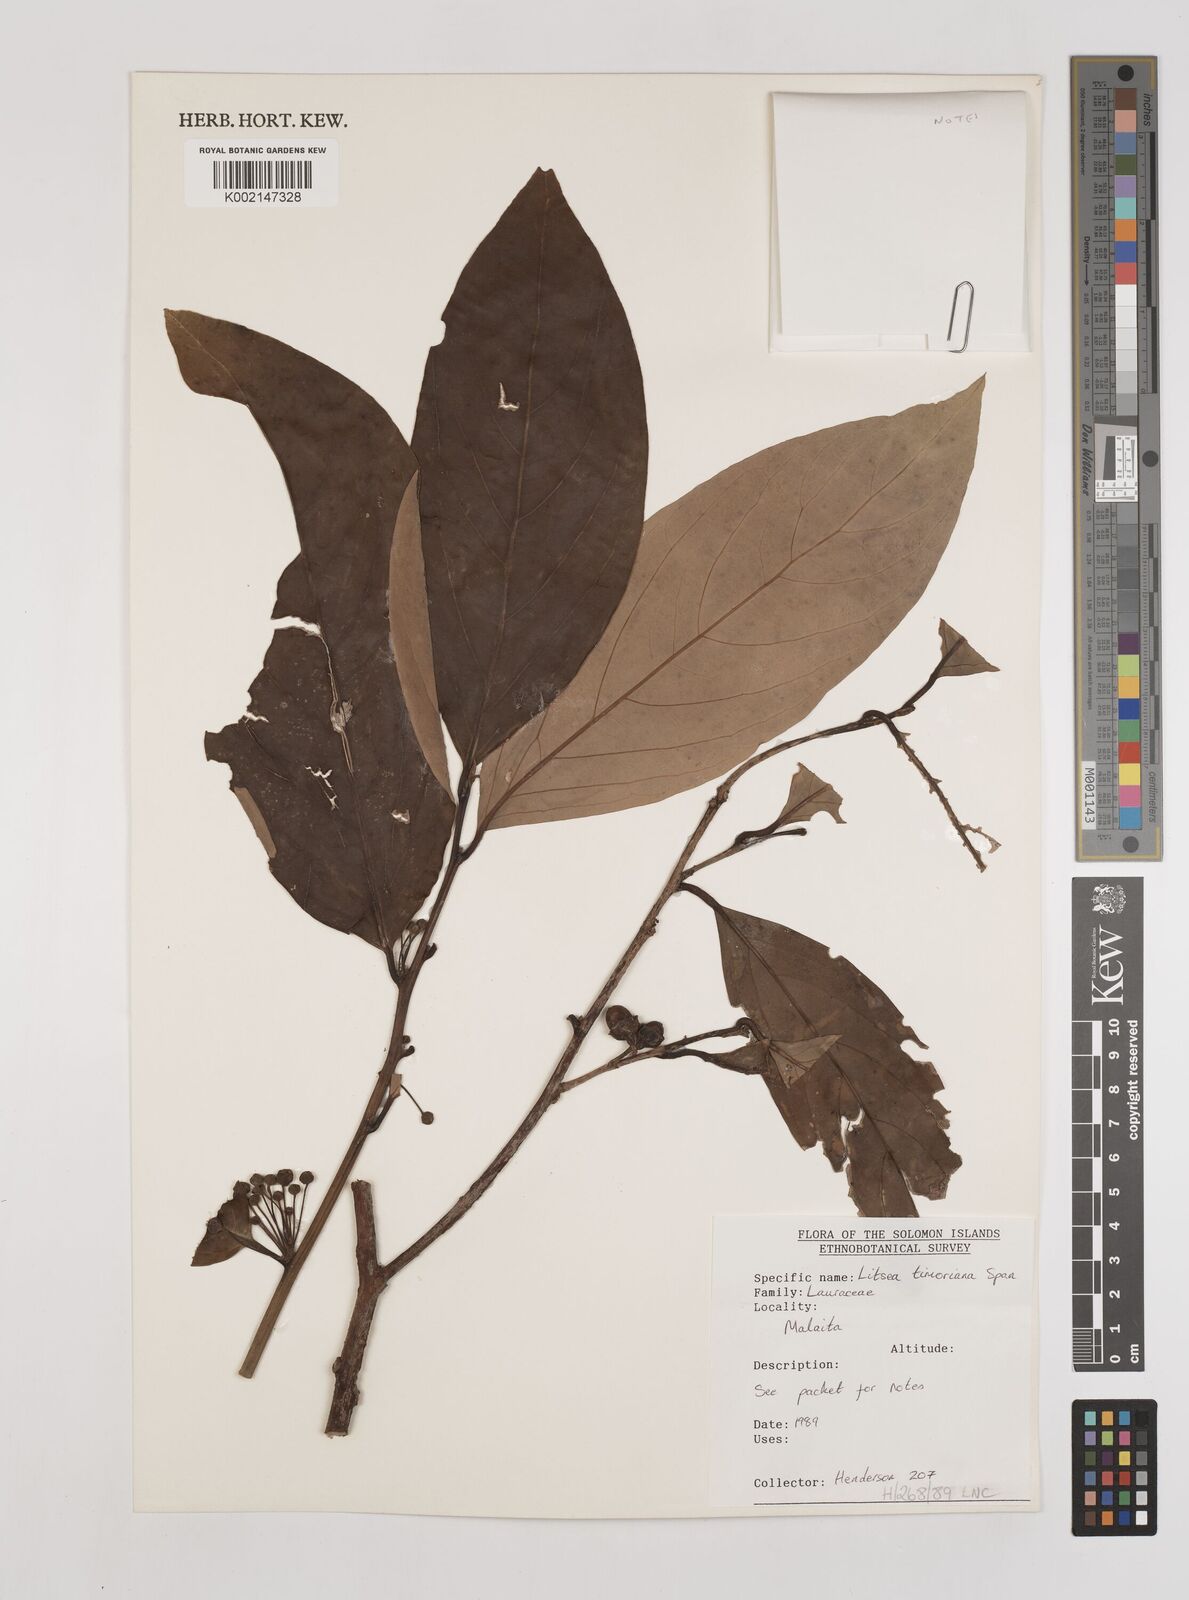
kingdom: Plantae
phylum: Tracheophyta
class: Magnoliopsida
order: Laurales
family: Lauraceae
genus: Litsea
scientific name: Litsea timoriana
